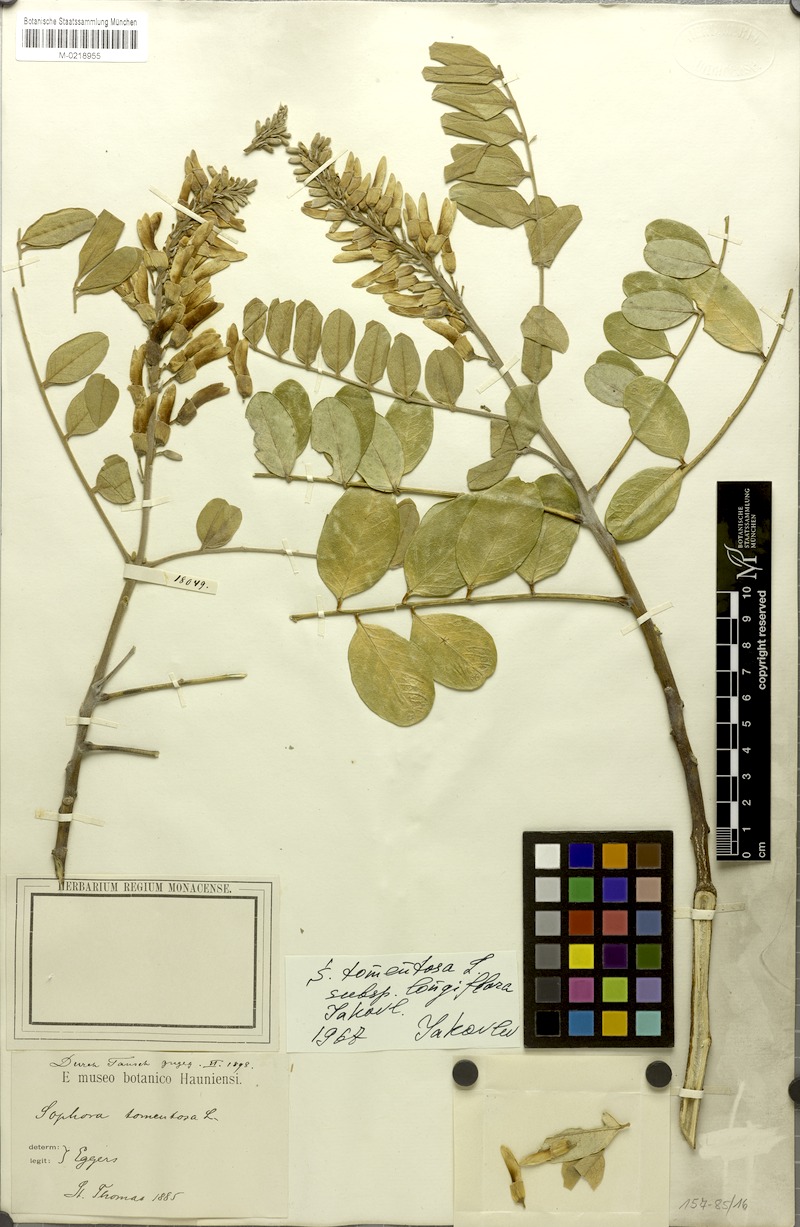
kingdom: Plantae
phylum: Tracheophyta
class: Magnoliopsida
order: Fabales
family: Fabaceae
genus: Sophora
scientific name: Sophora tomentosa
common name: Yellow necklacepod
